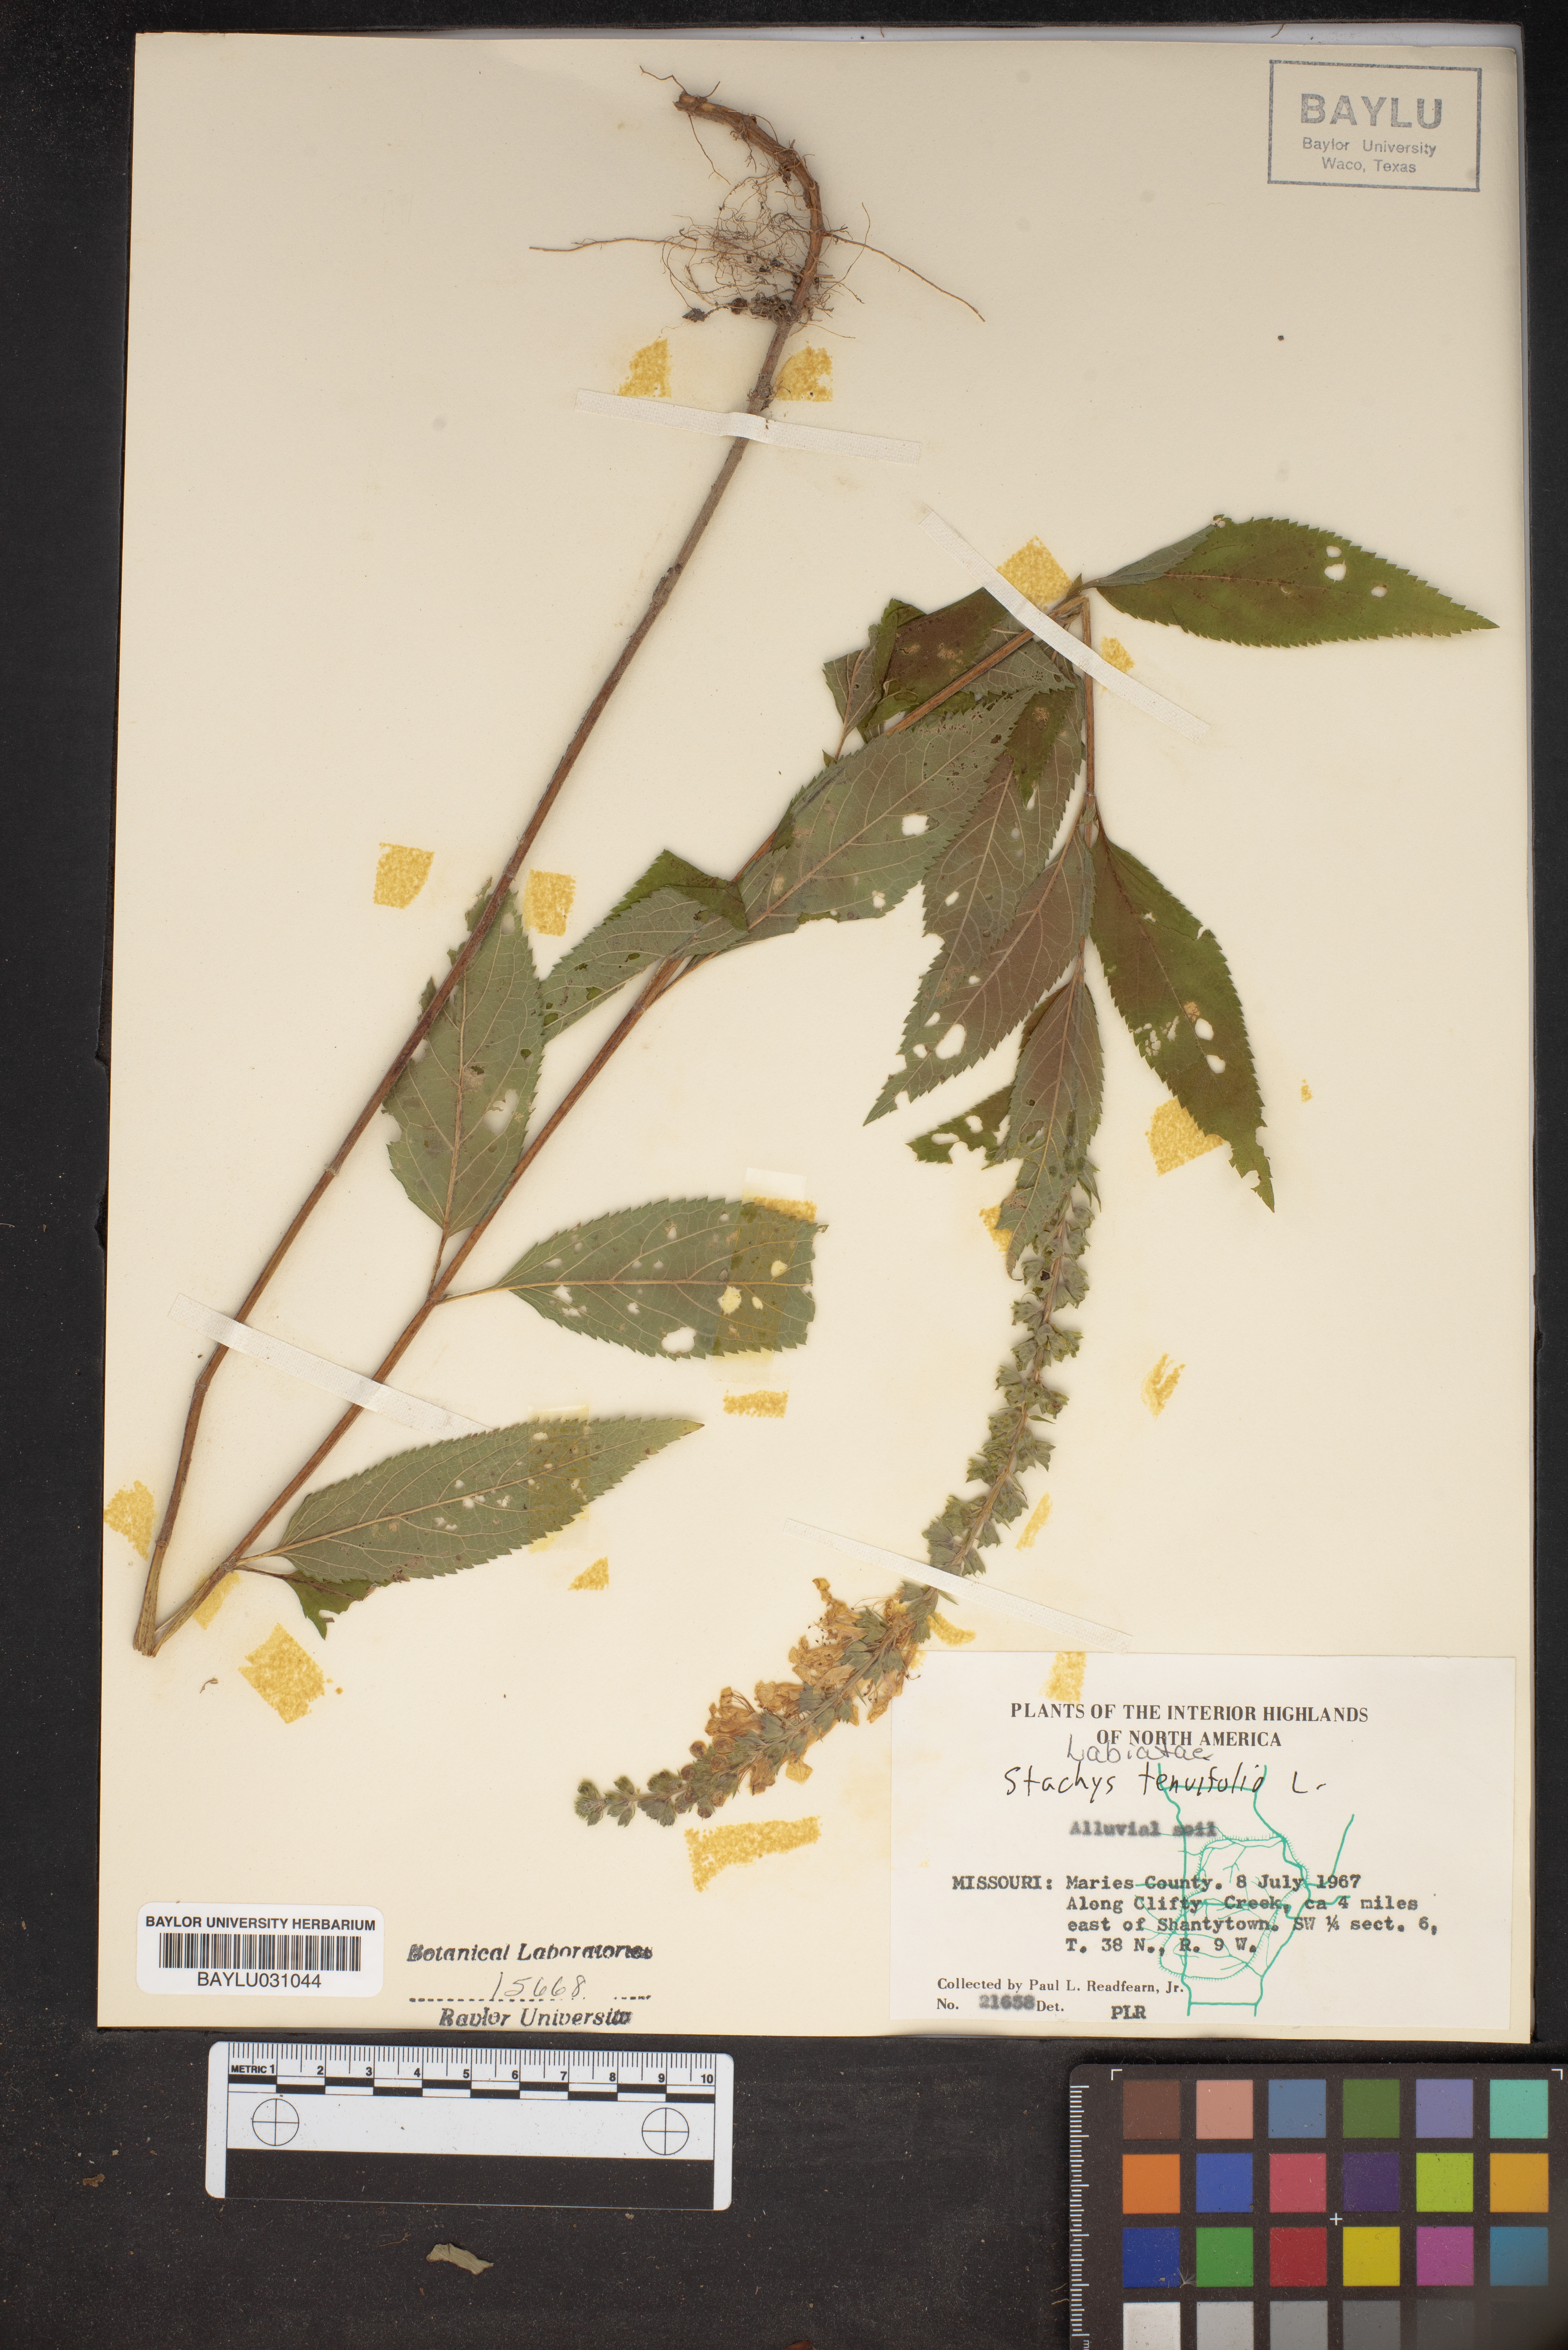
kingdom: Plantae
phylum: Tracheophyta
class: Magnoliopsida
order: Lamiales
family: Lamiaceae
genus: Stachys
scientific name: Stachys tenuifolia
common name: Smooth hedge-nettle
